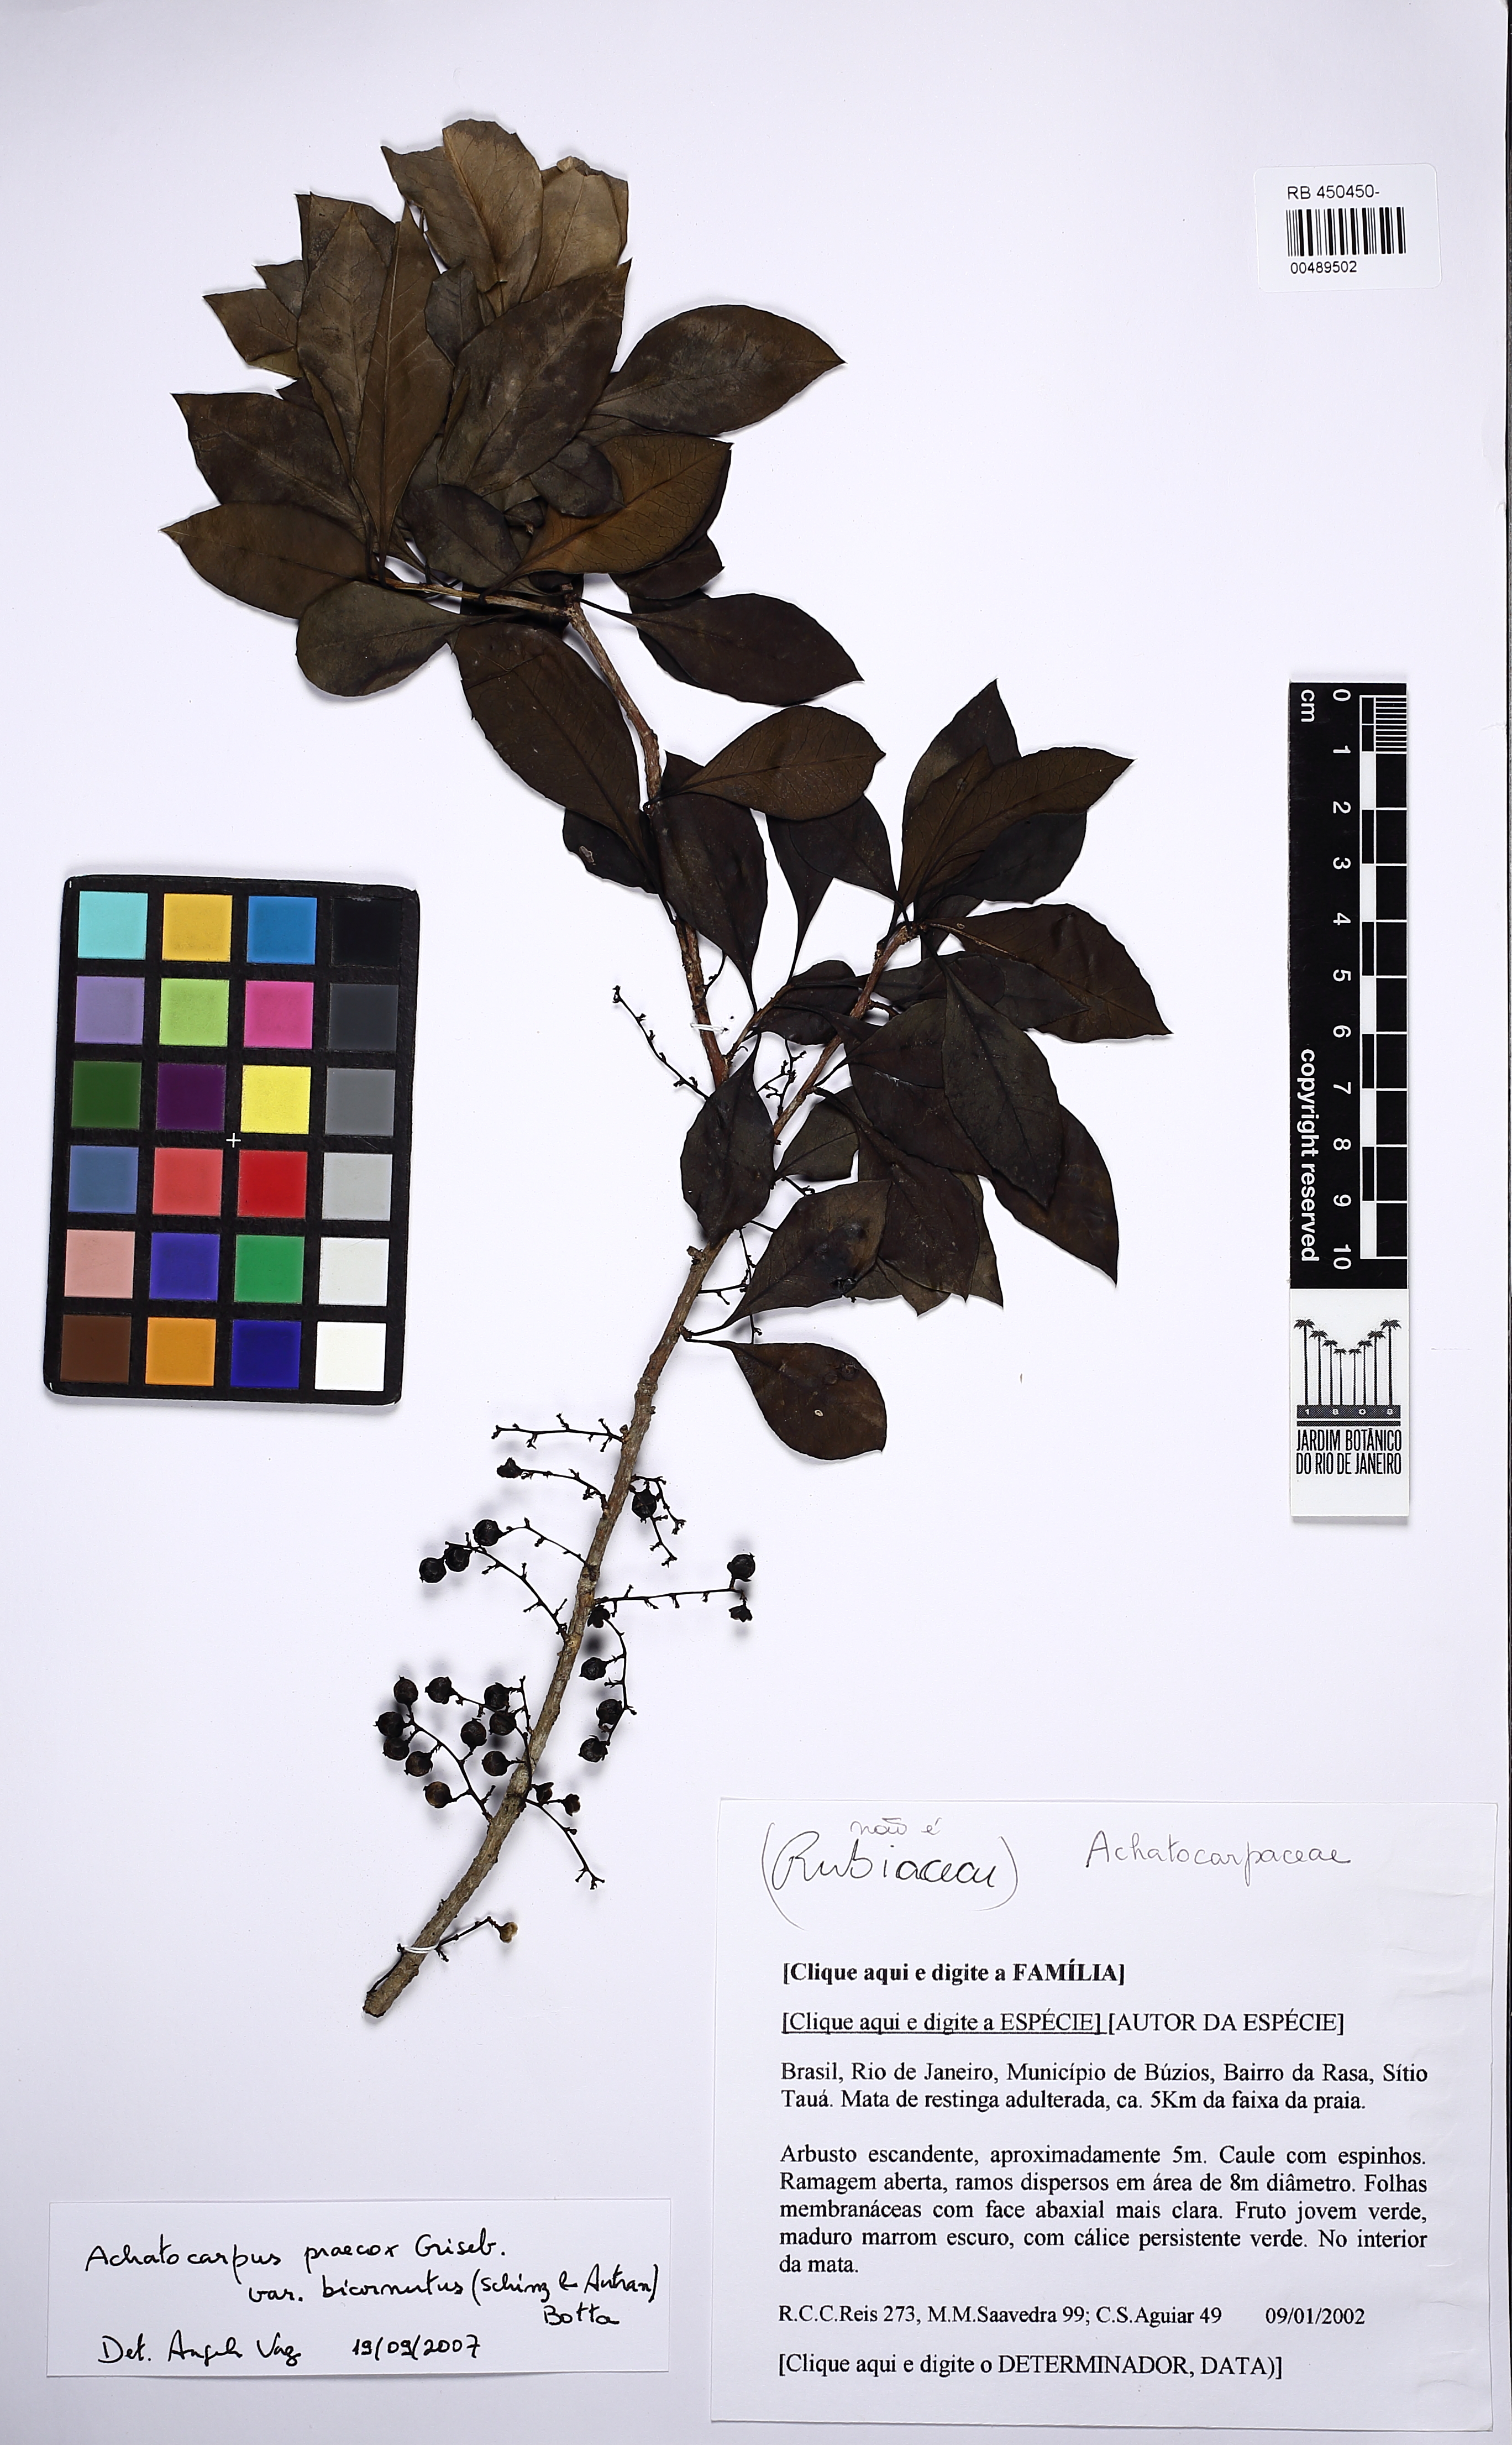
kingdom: Plantae
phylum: Tracheophyta
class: Magnoliopsida
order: Caryophyllales
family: Achatocarpaceae
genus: Achatocarpus
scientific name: Achatocarpus praecox
